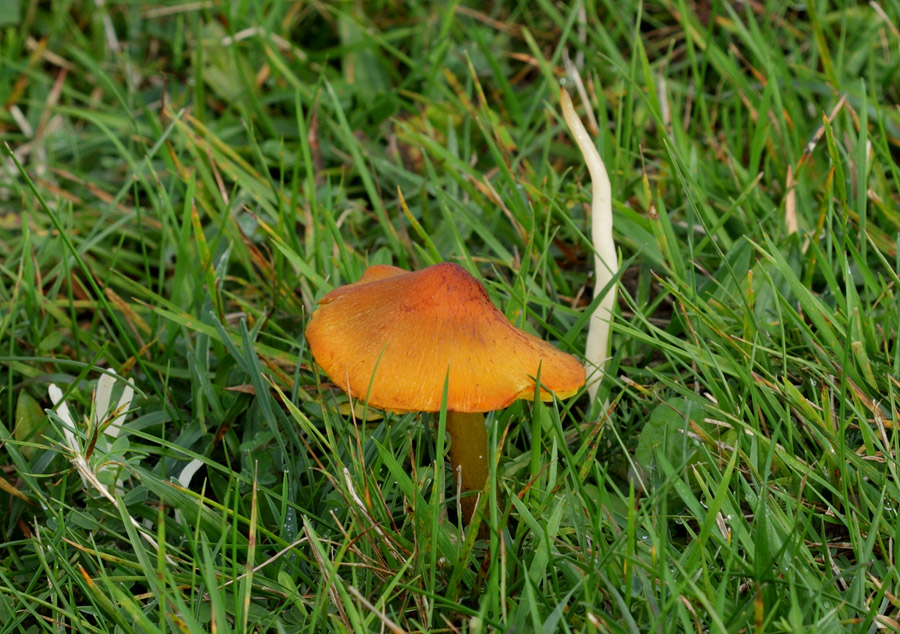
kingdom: Fungi
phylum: Basidiomycota
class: Agaricomycetes
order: Agaricales
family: Hygrophoraceae
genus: Hygrocybe
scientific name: Hygrocybe conica
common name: kegle-vokshat
